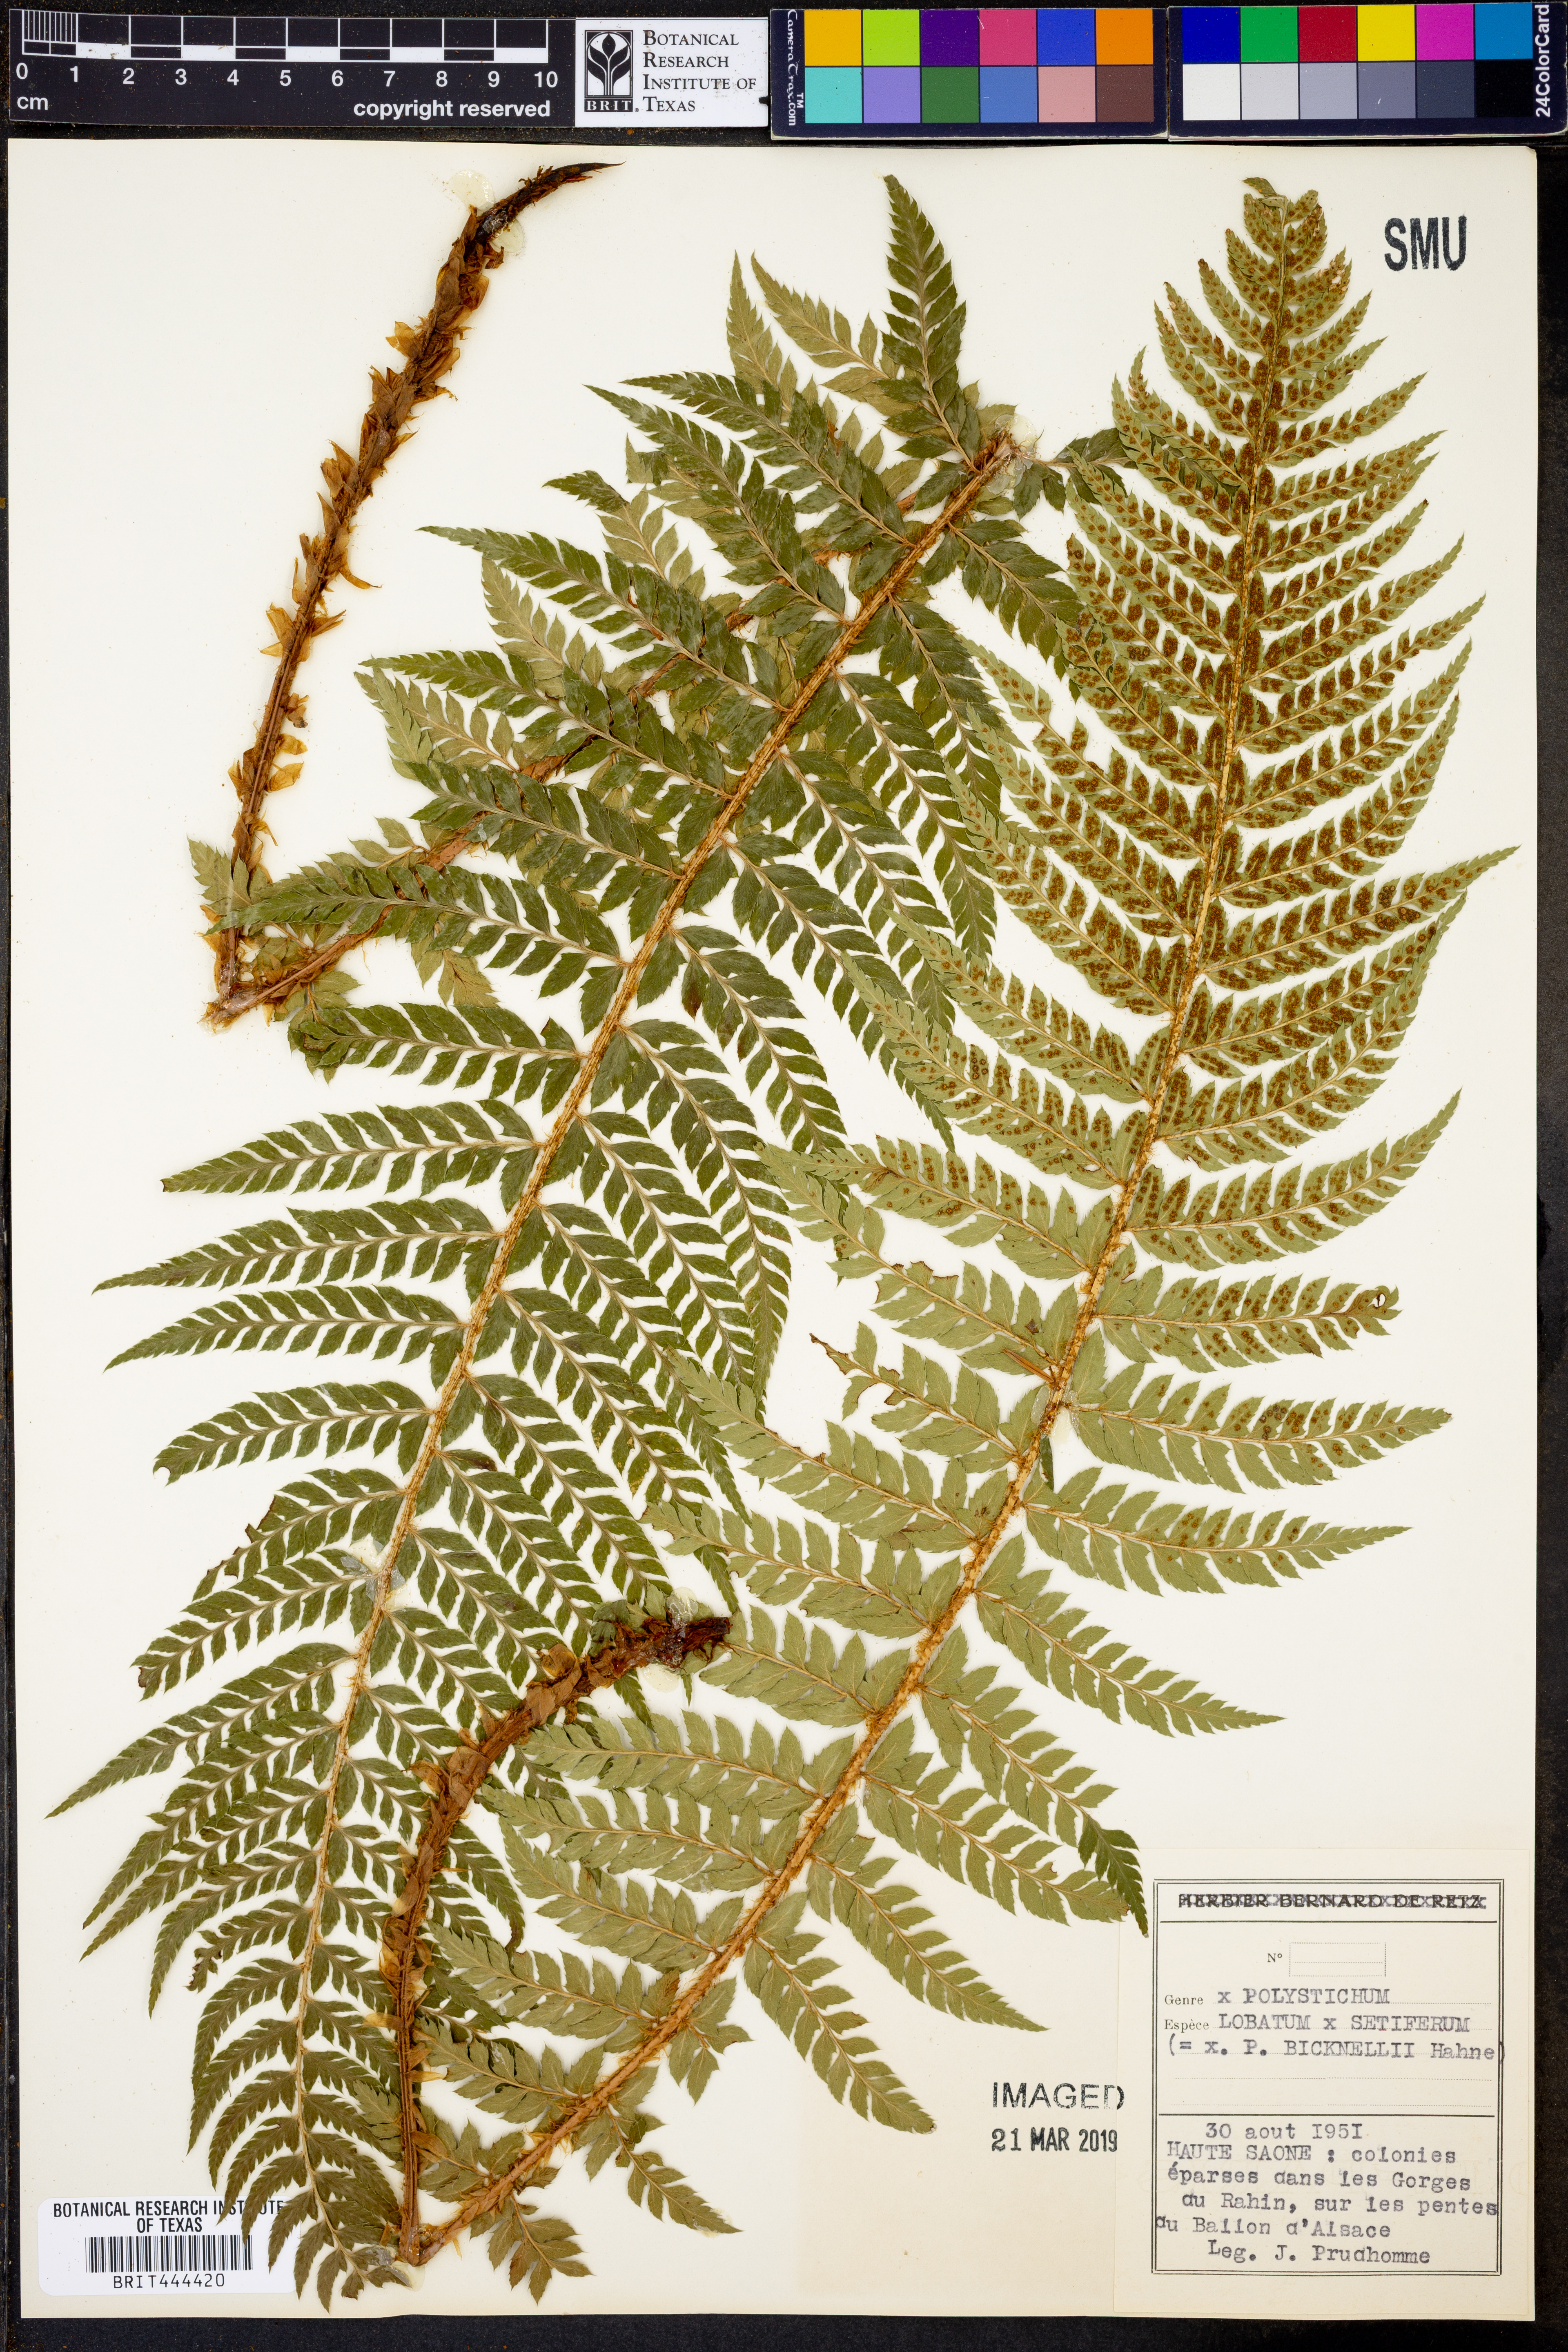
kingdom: Plantae
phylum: Tracheophyta
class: Polypodiopsida
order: Polypodiales
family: Dryopteridaceae
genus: Polystichum
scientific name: Polystichum aculeatum
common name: Hard shield-fern
